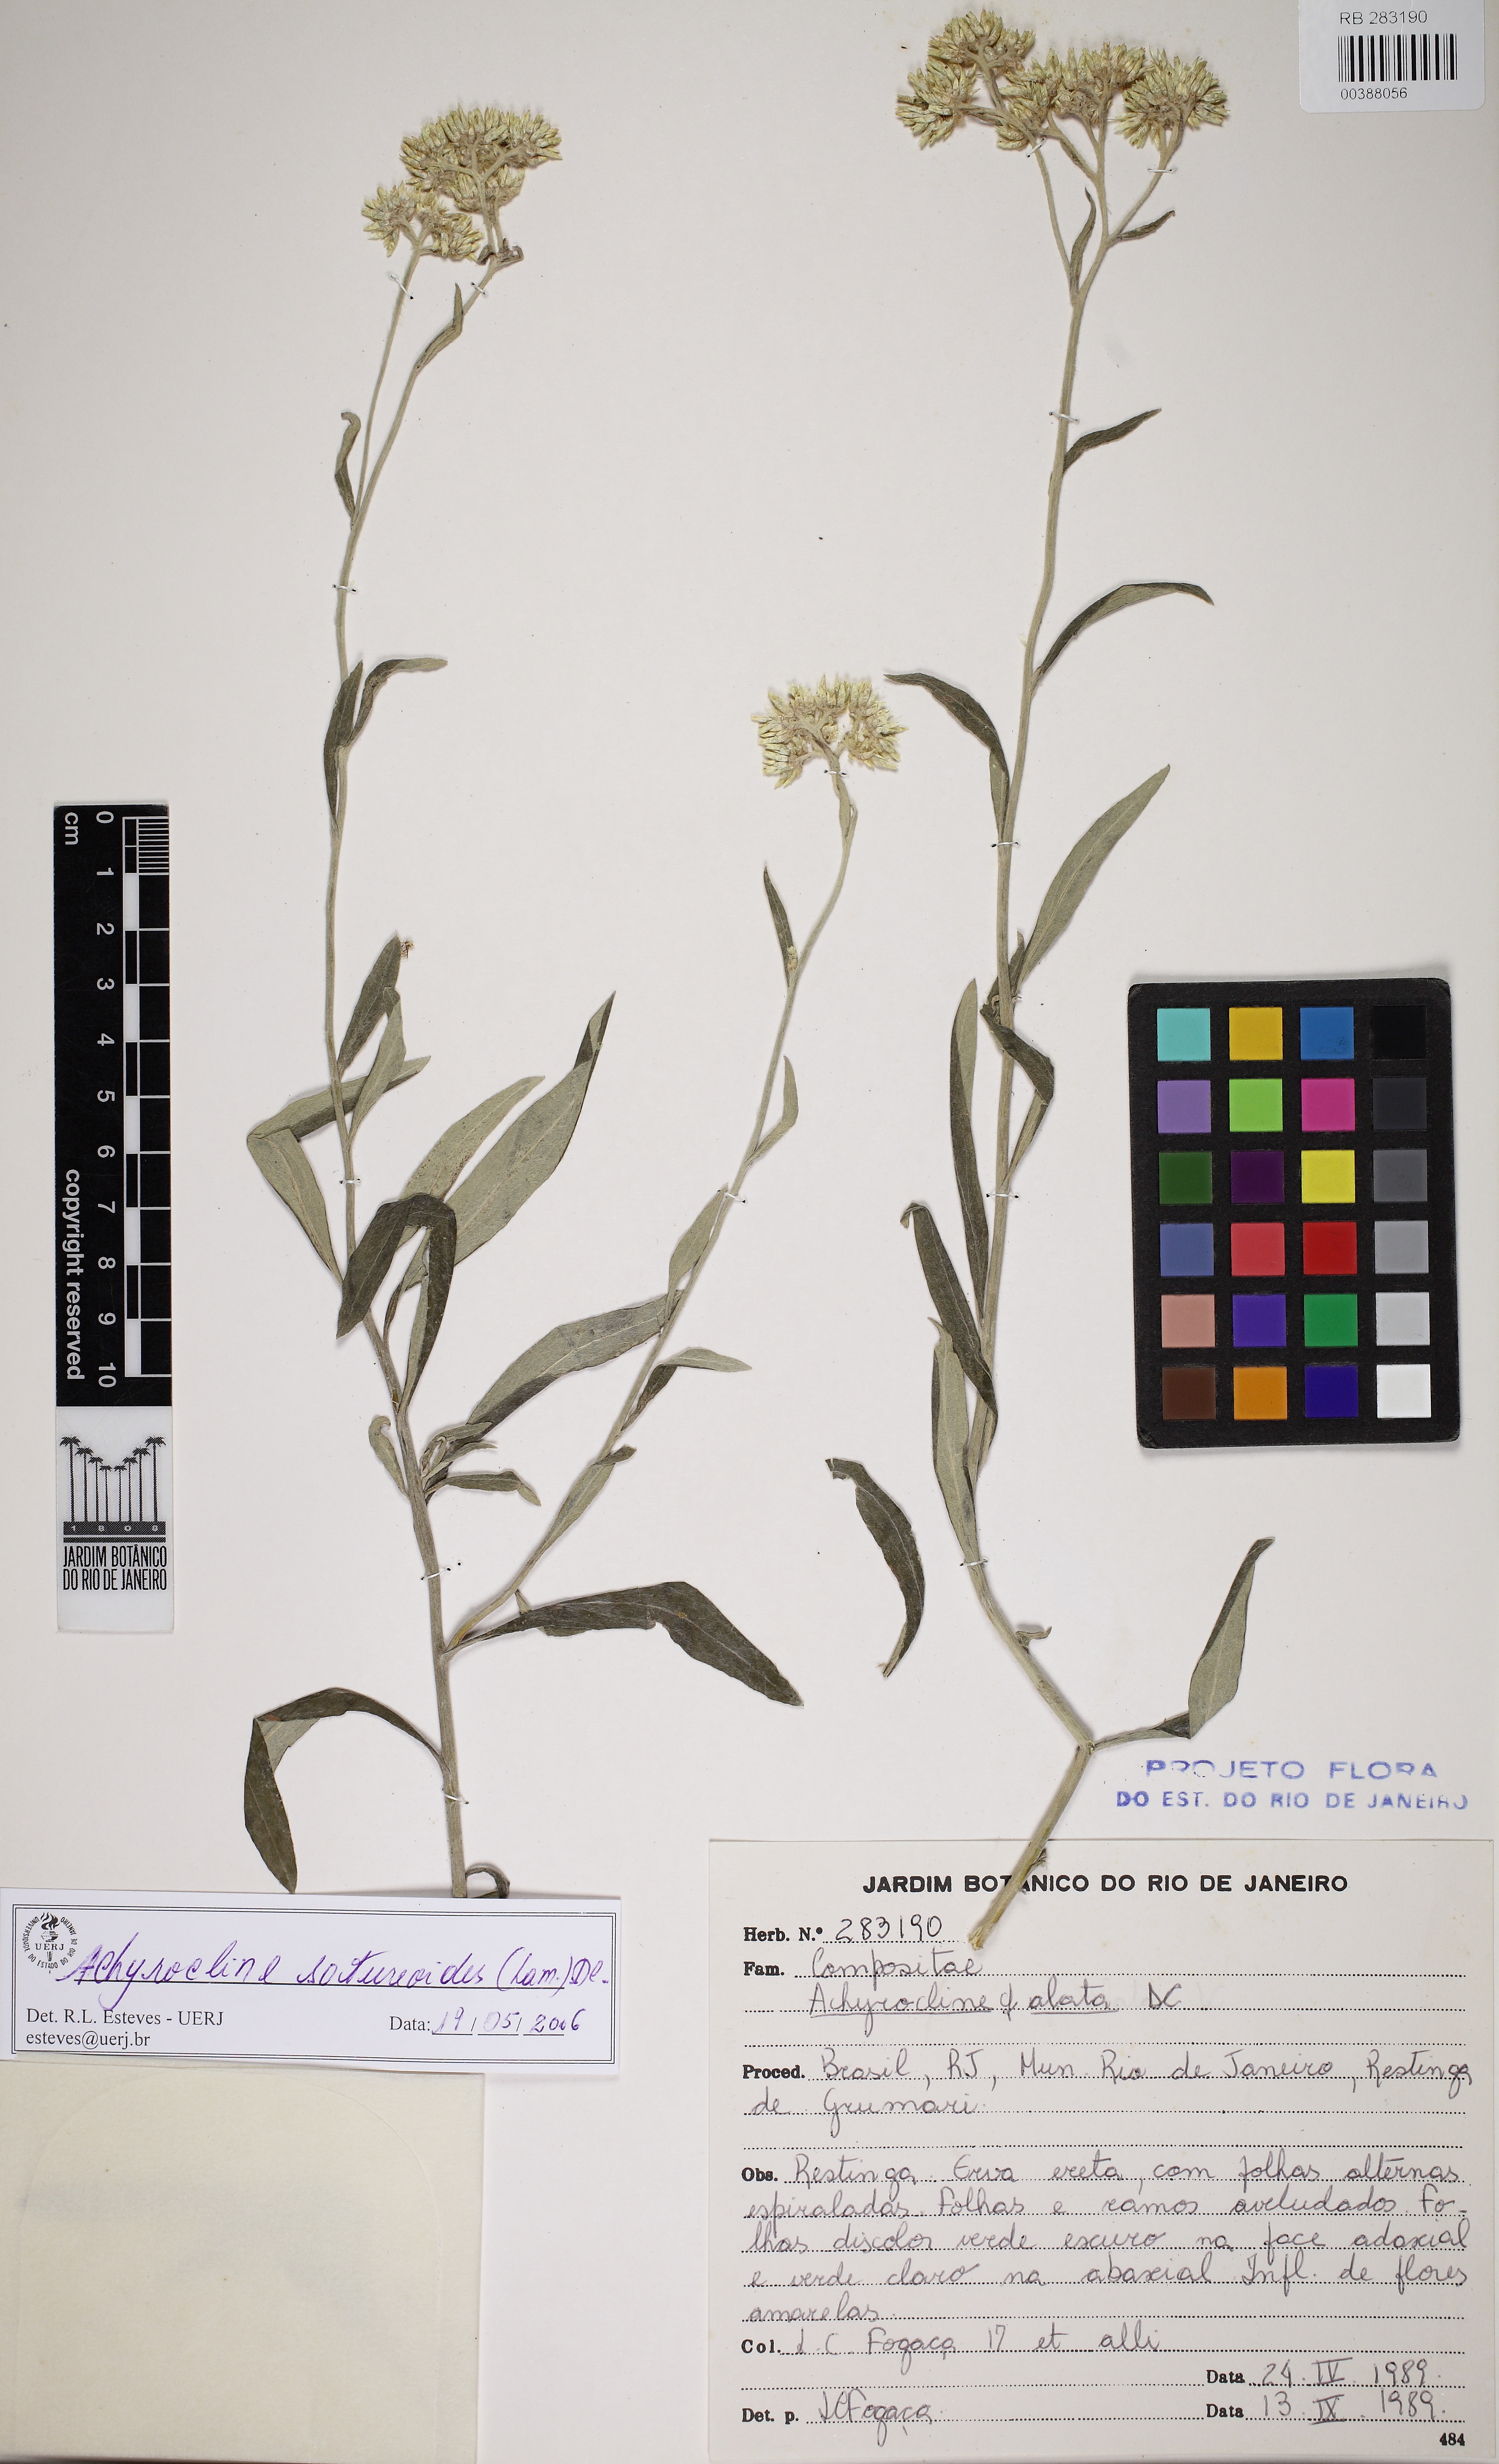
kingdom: Plantae
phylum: Tracheophyta
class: Magnoliopsida
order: Asterales
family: Asteraceae
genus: Achyrocline
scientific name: Achyrocline satureioides
